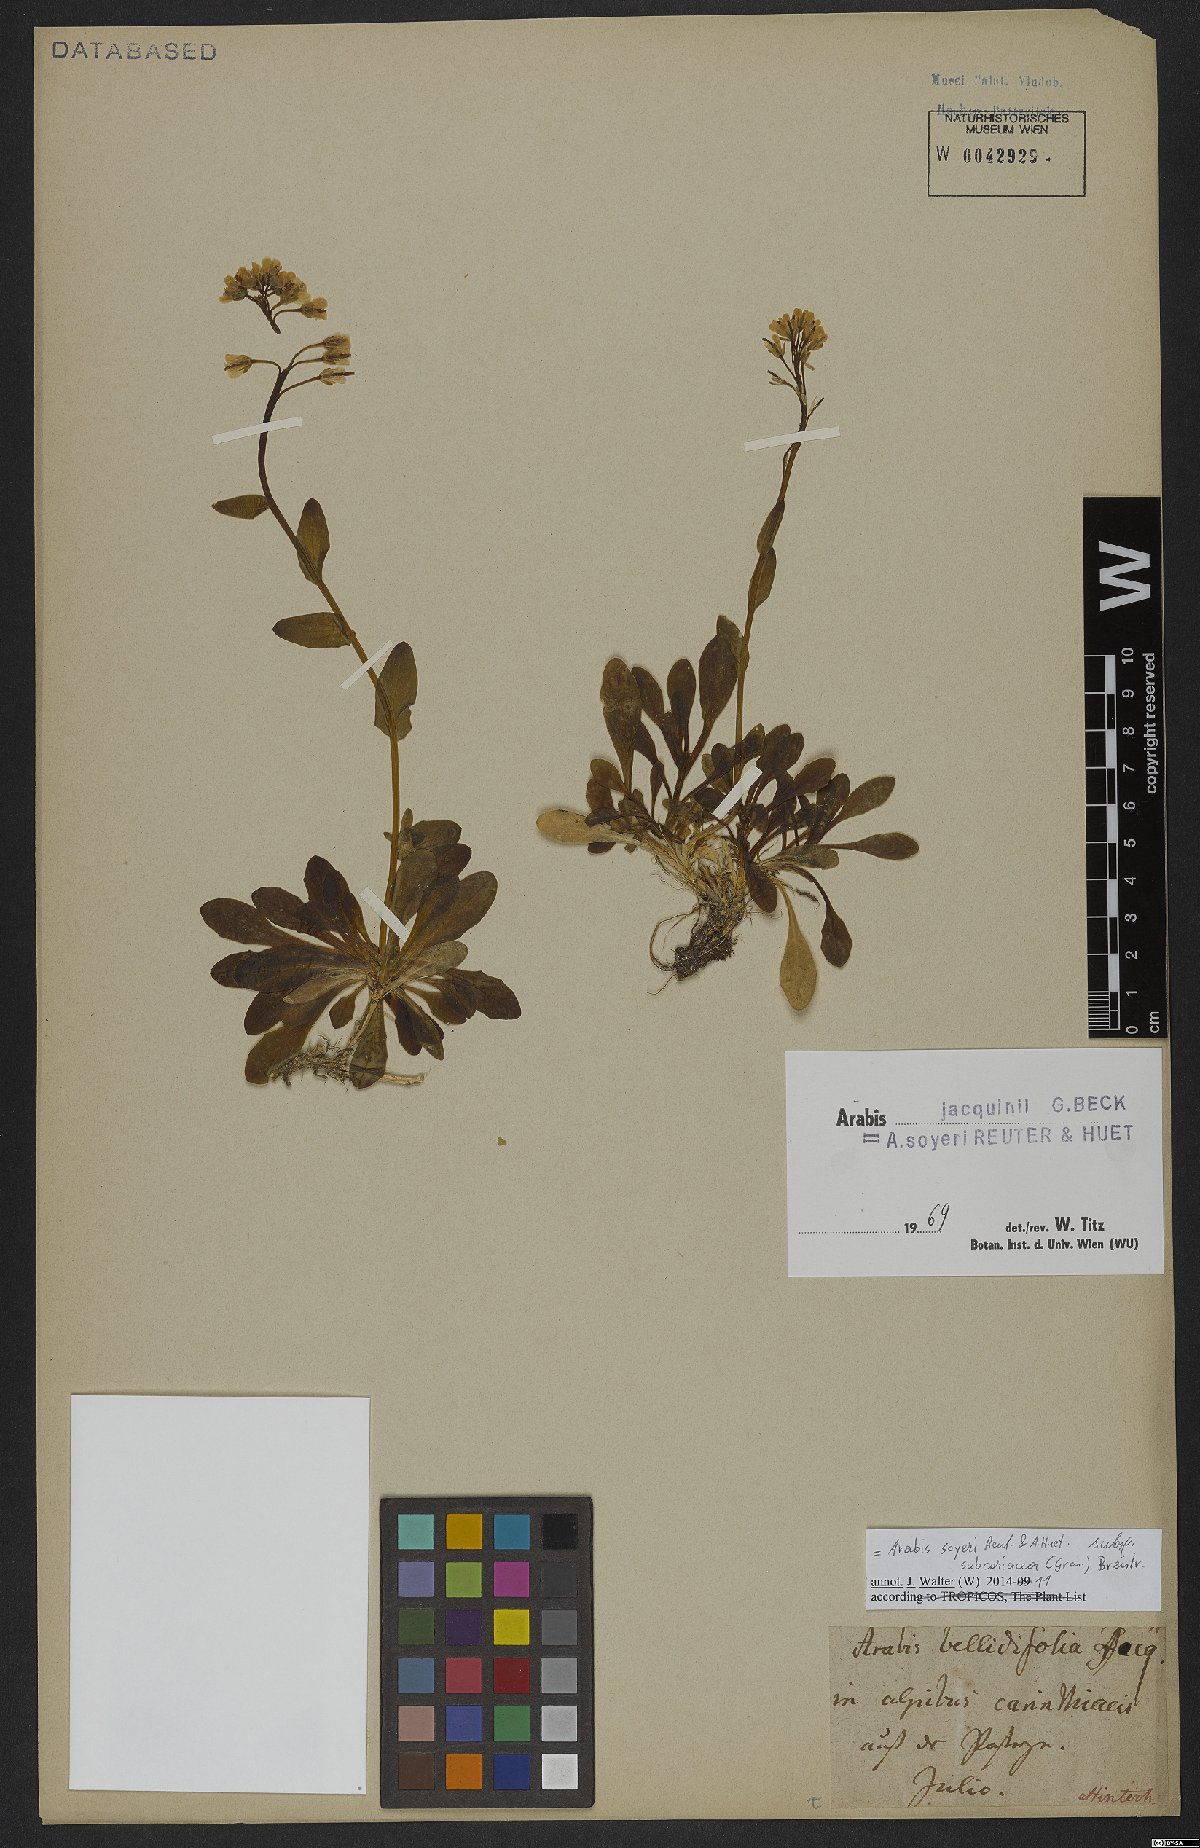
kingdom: Plantae
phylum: Tracheophyta
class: Magnoliopsida
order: Brassicales
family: Brassicaceae
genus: Arabis
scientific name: Arabis soyeri
